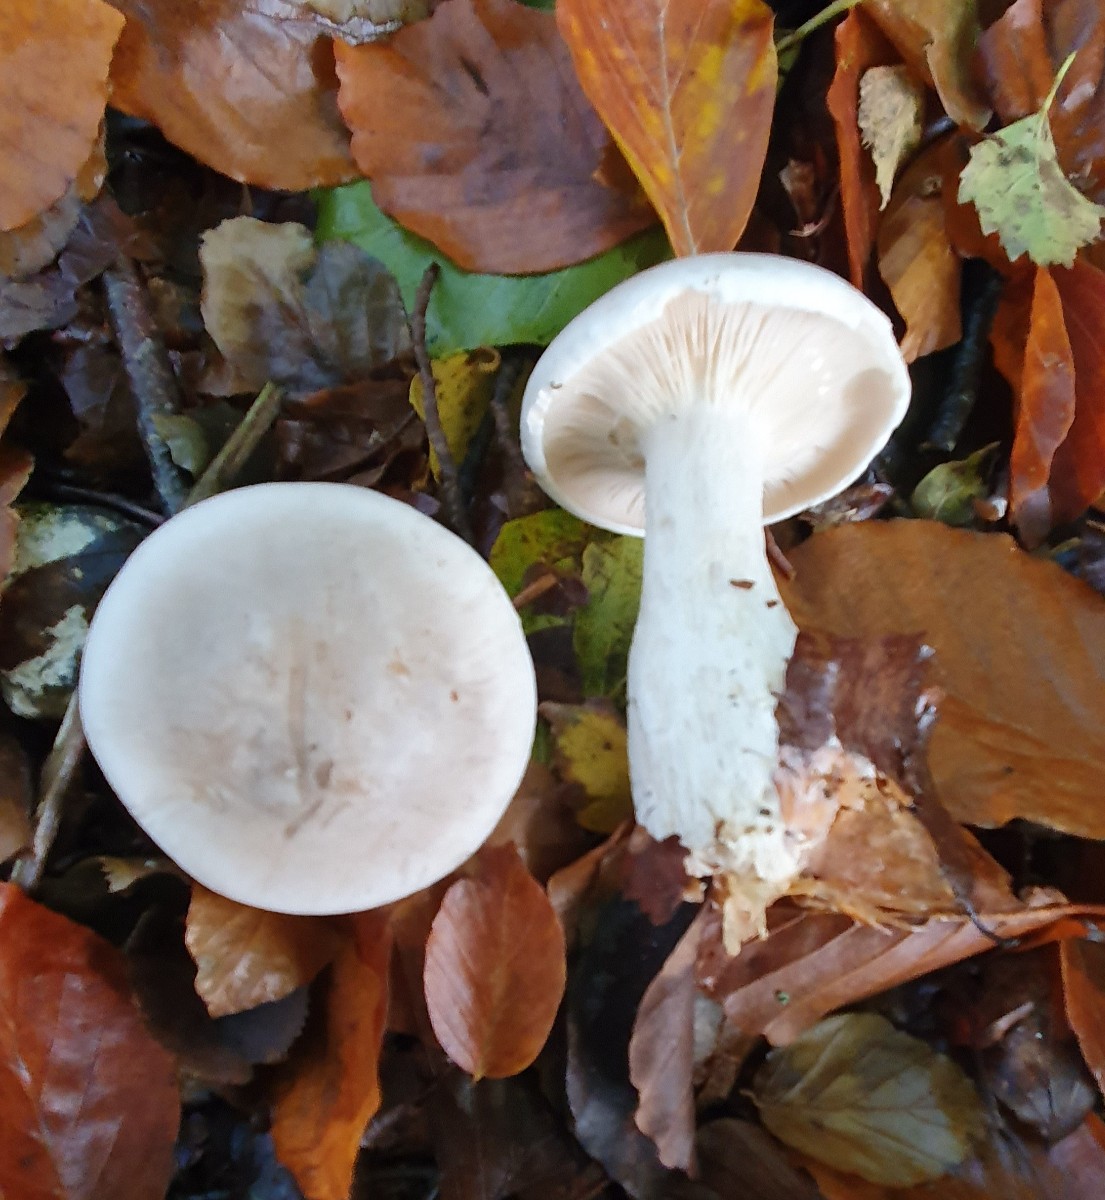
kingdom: Fungi
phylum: Basidiomycota
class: Agaricomycetes
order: Agaricales
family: Tricholomataceae
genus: Clitocybe
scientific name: Clitocybe nebularis
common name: tåge-tragthat
